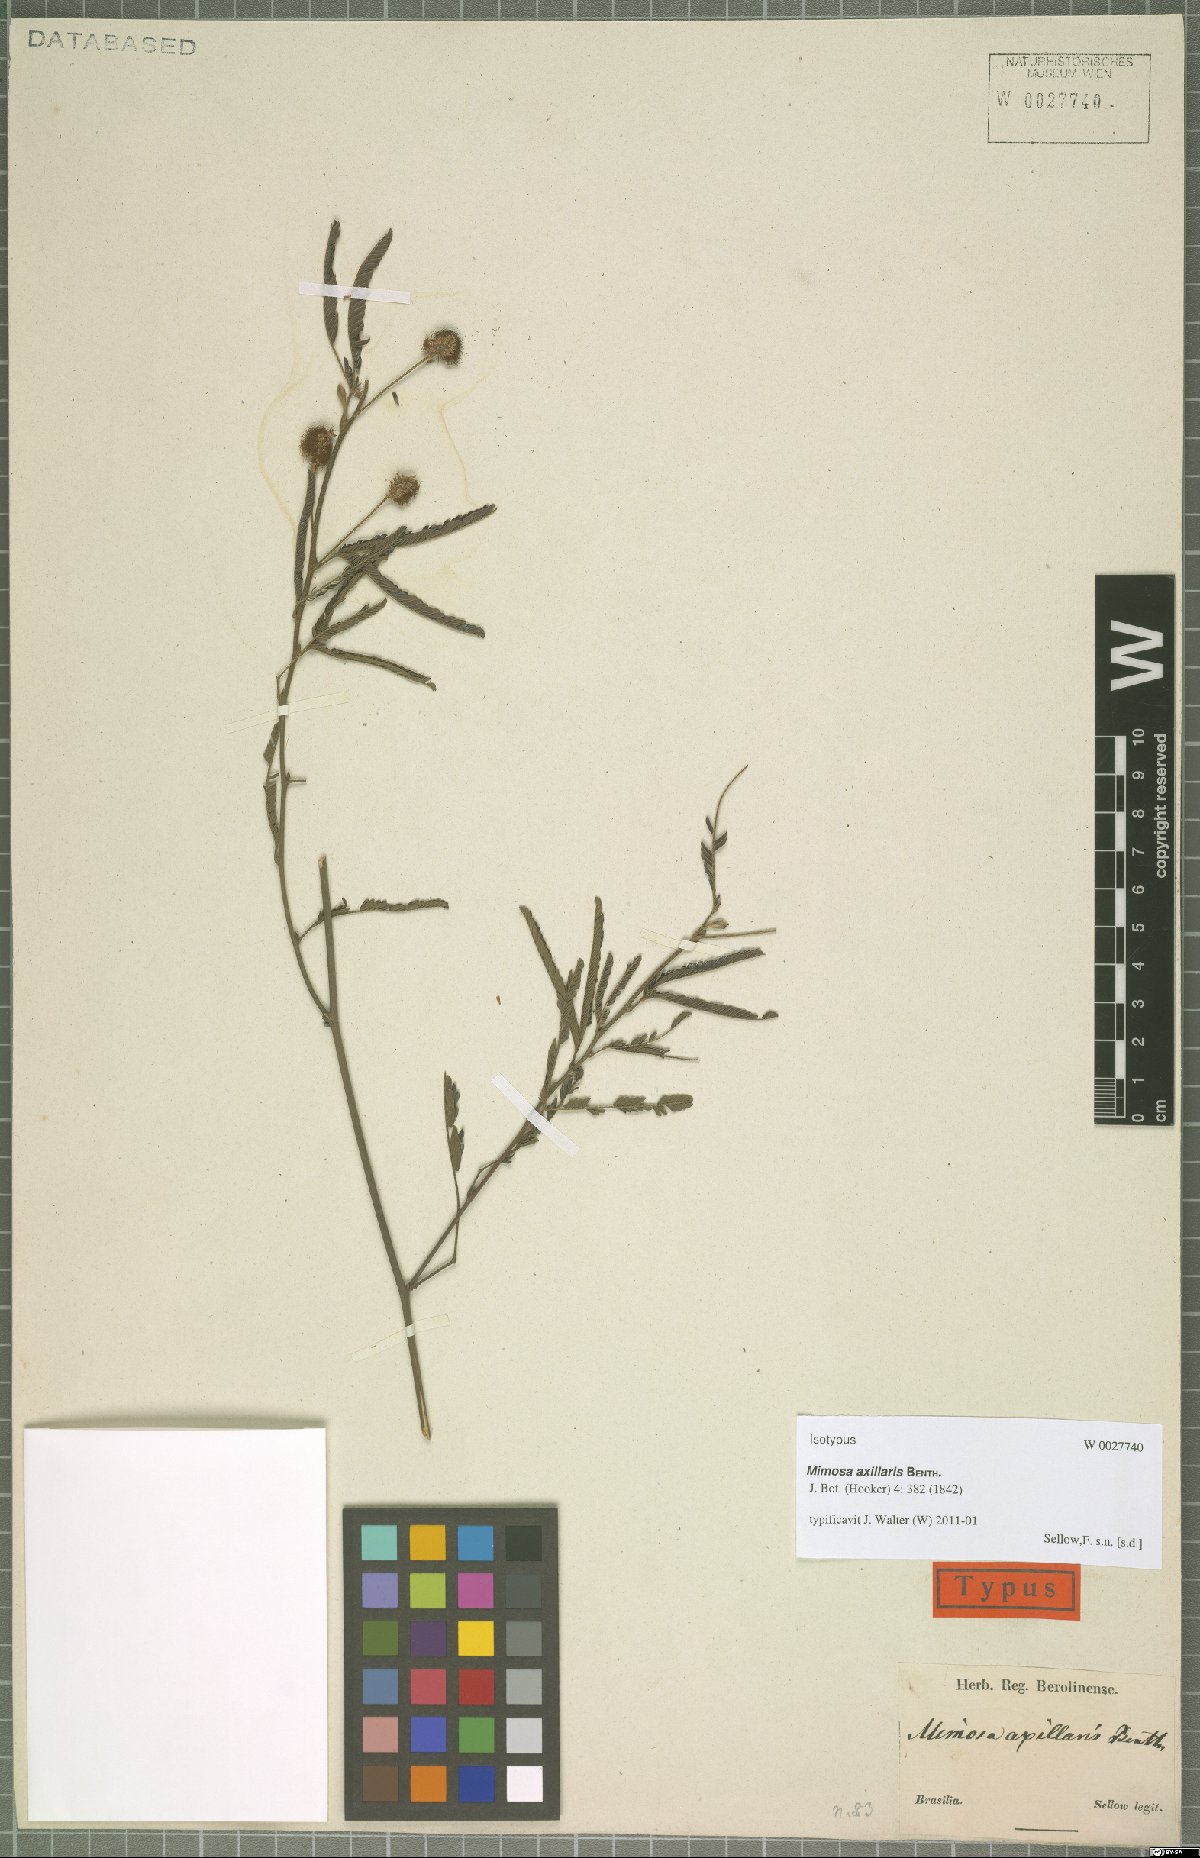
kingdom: Plantae
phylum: Tracheophyta
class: Magnoliopsida
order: Fabales
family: Fabaceae
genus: Mimosa
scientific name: Mimosa axillaris
